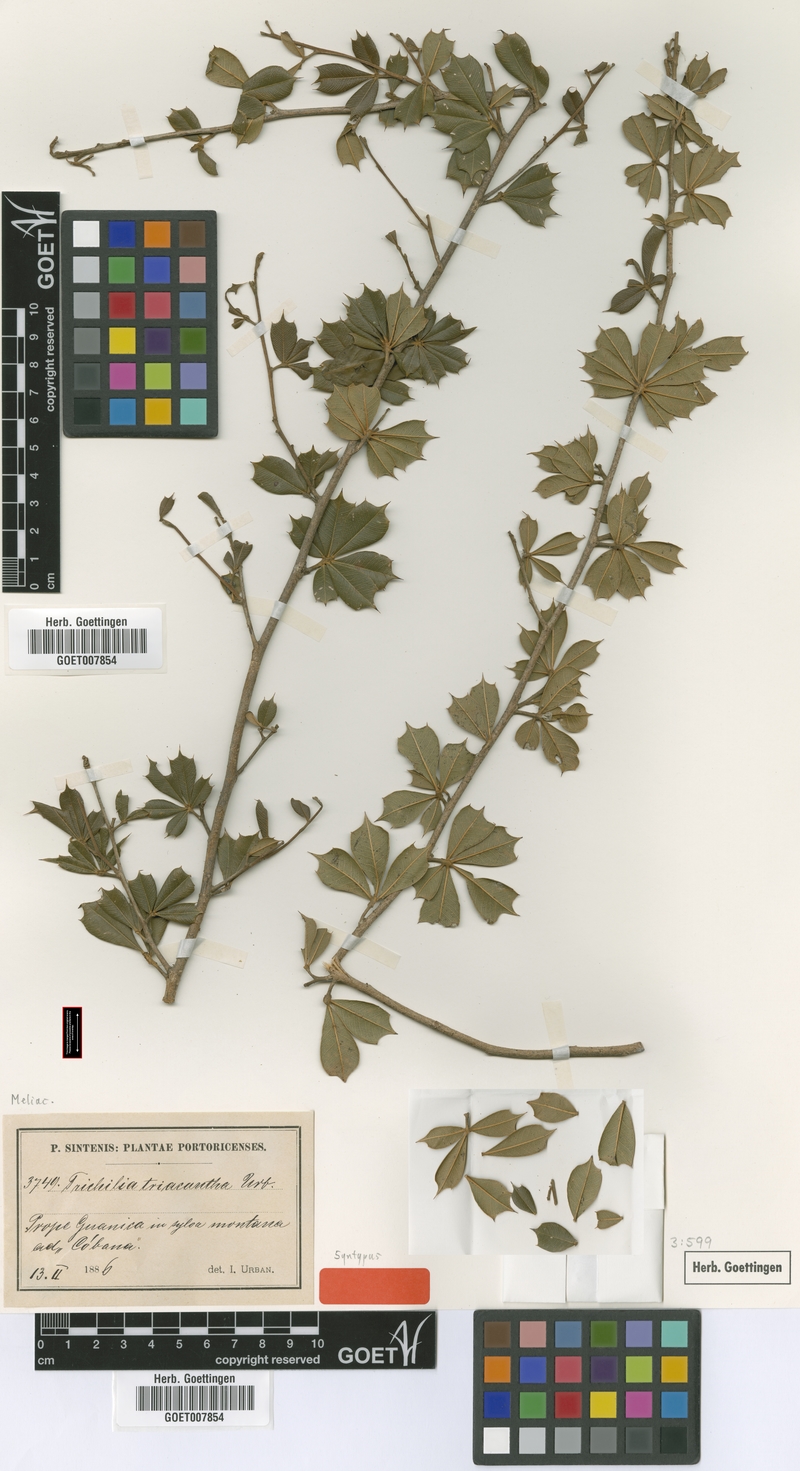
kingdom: Plantae
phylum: Tracheophyta
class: Magnoliopsida
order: Sapindales
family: Meliaceae
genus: Trichilia
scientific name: Trichilia triacantha
